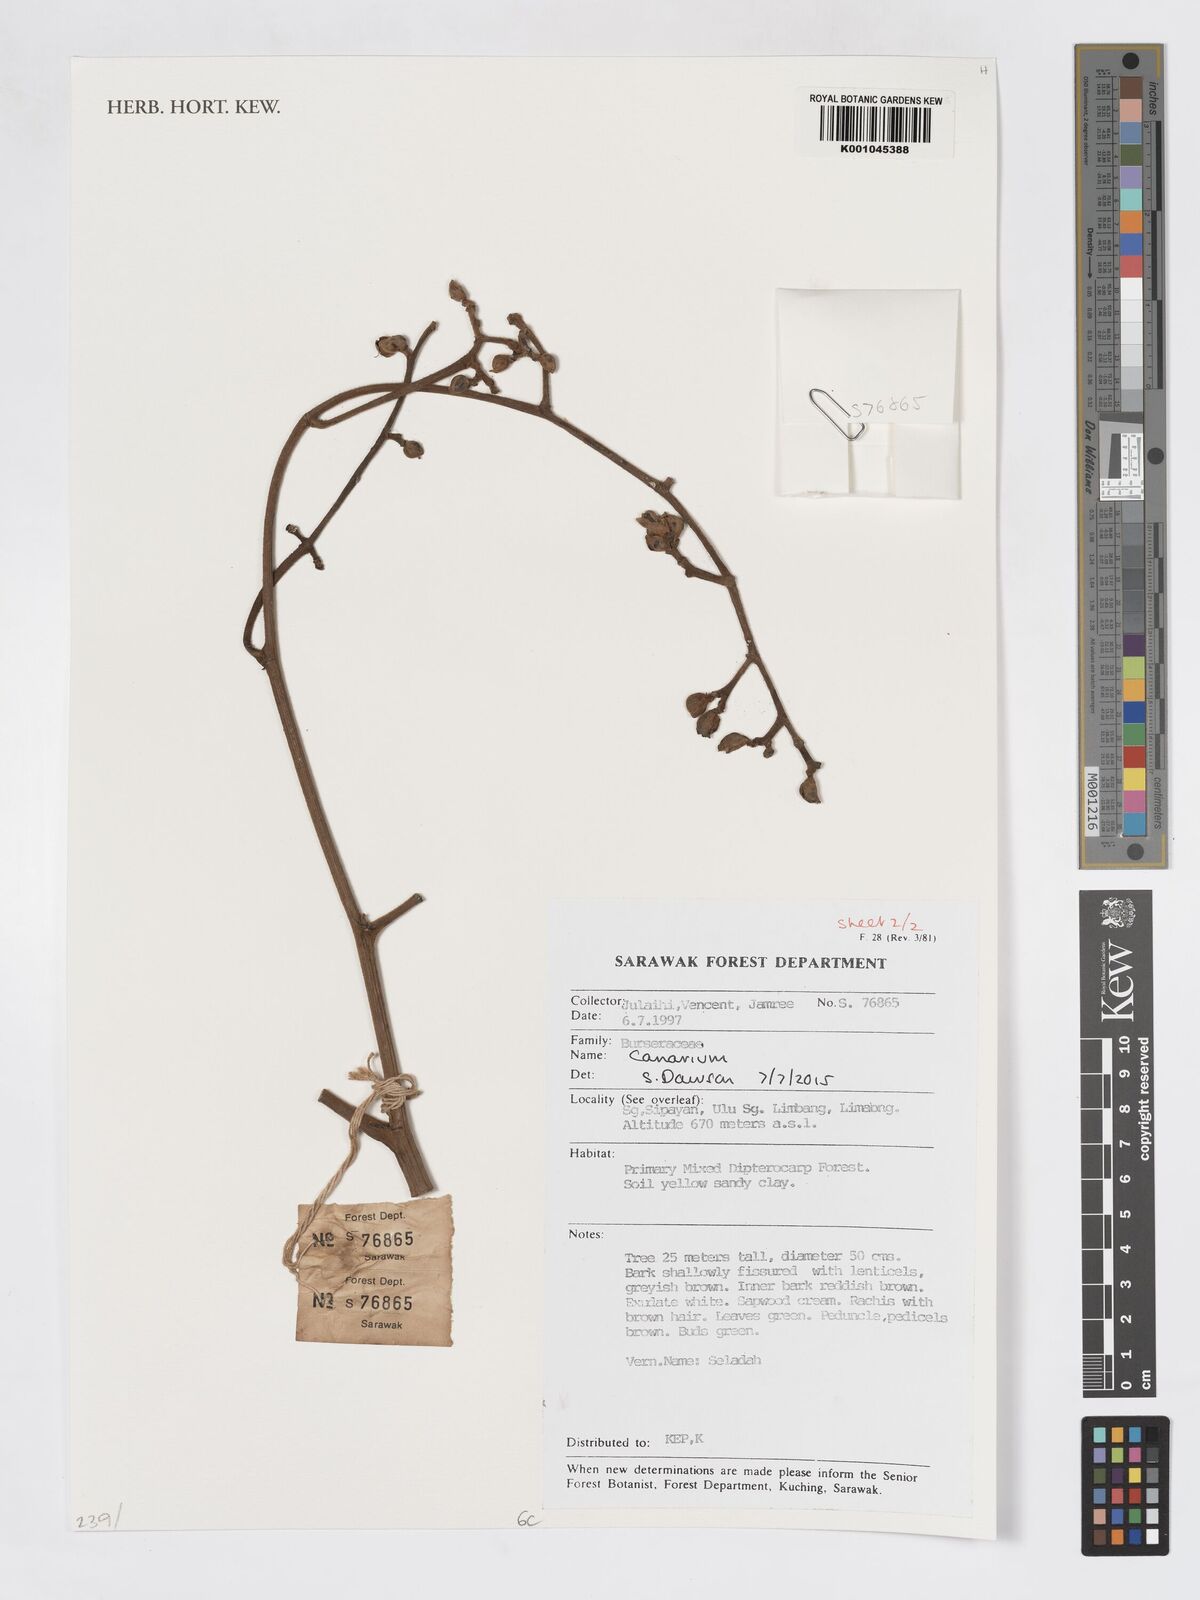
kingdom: Plantae
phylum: Tracheophyta
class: Magnoliopsida
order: Sapindales
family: Burseraceae
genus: Canarium
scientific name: Canarium
